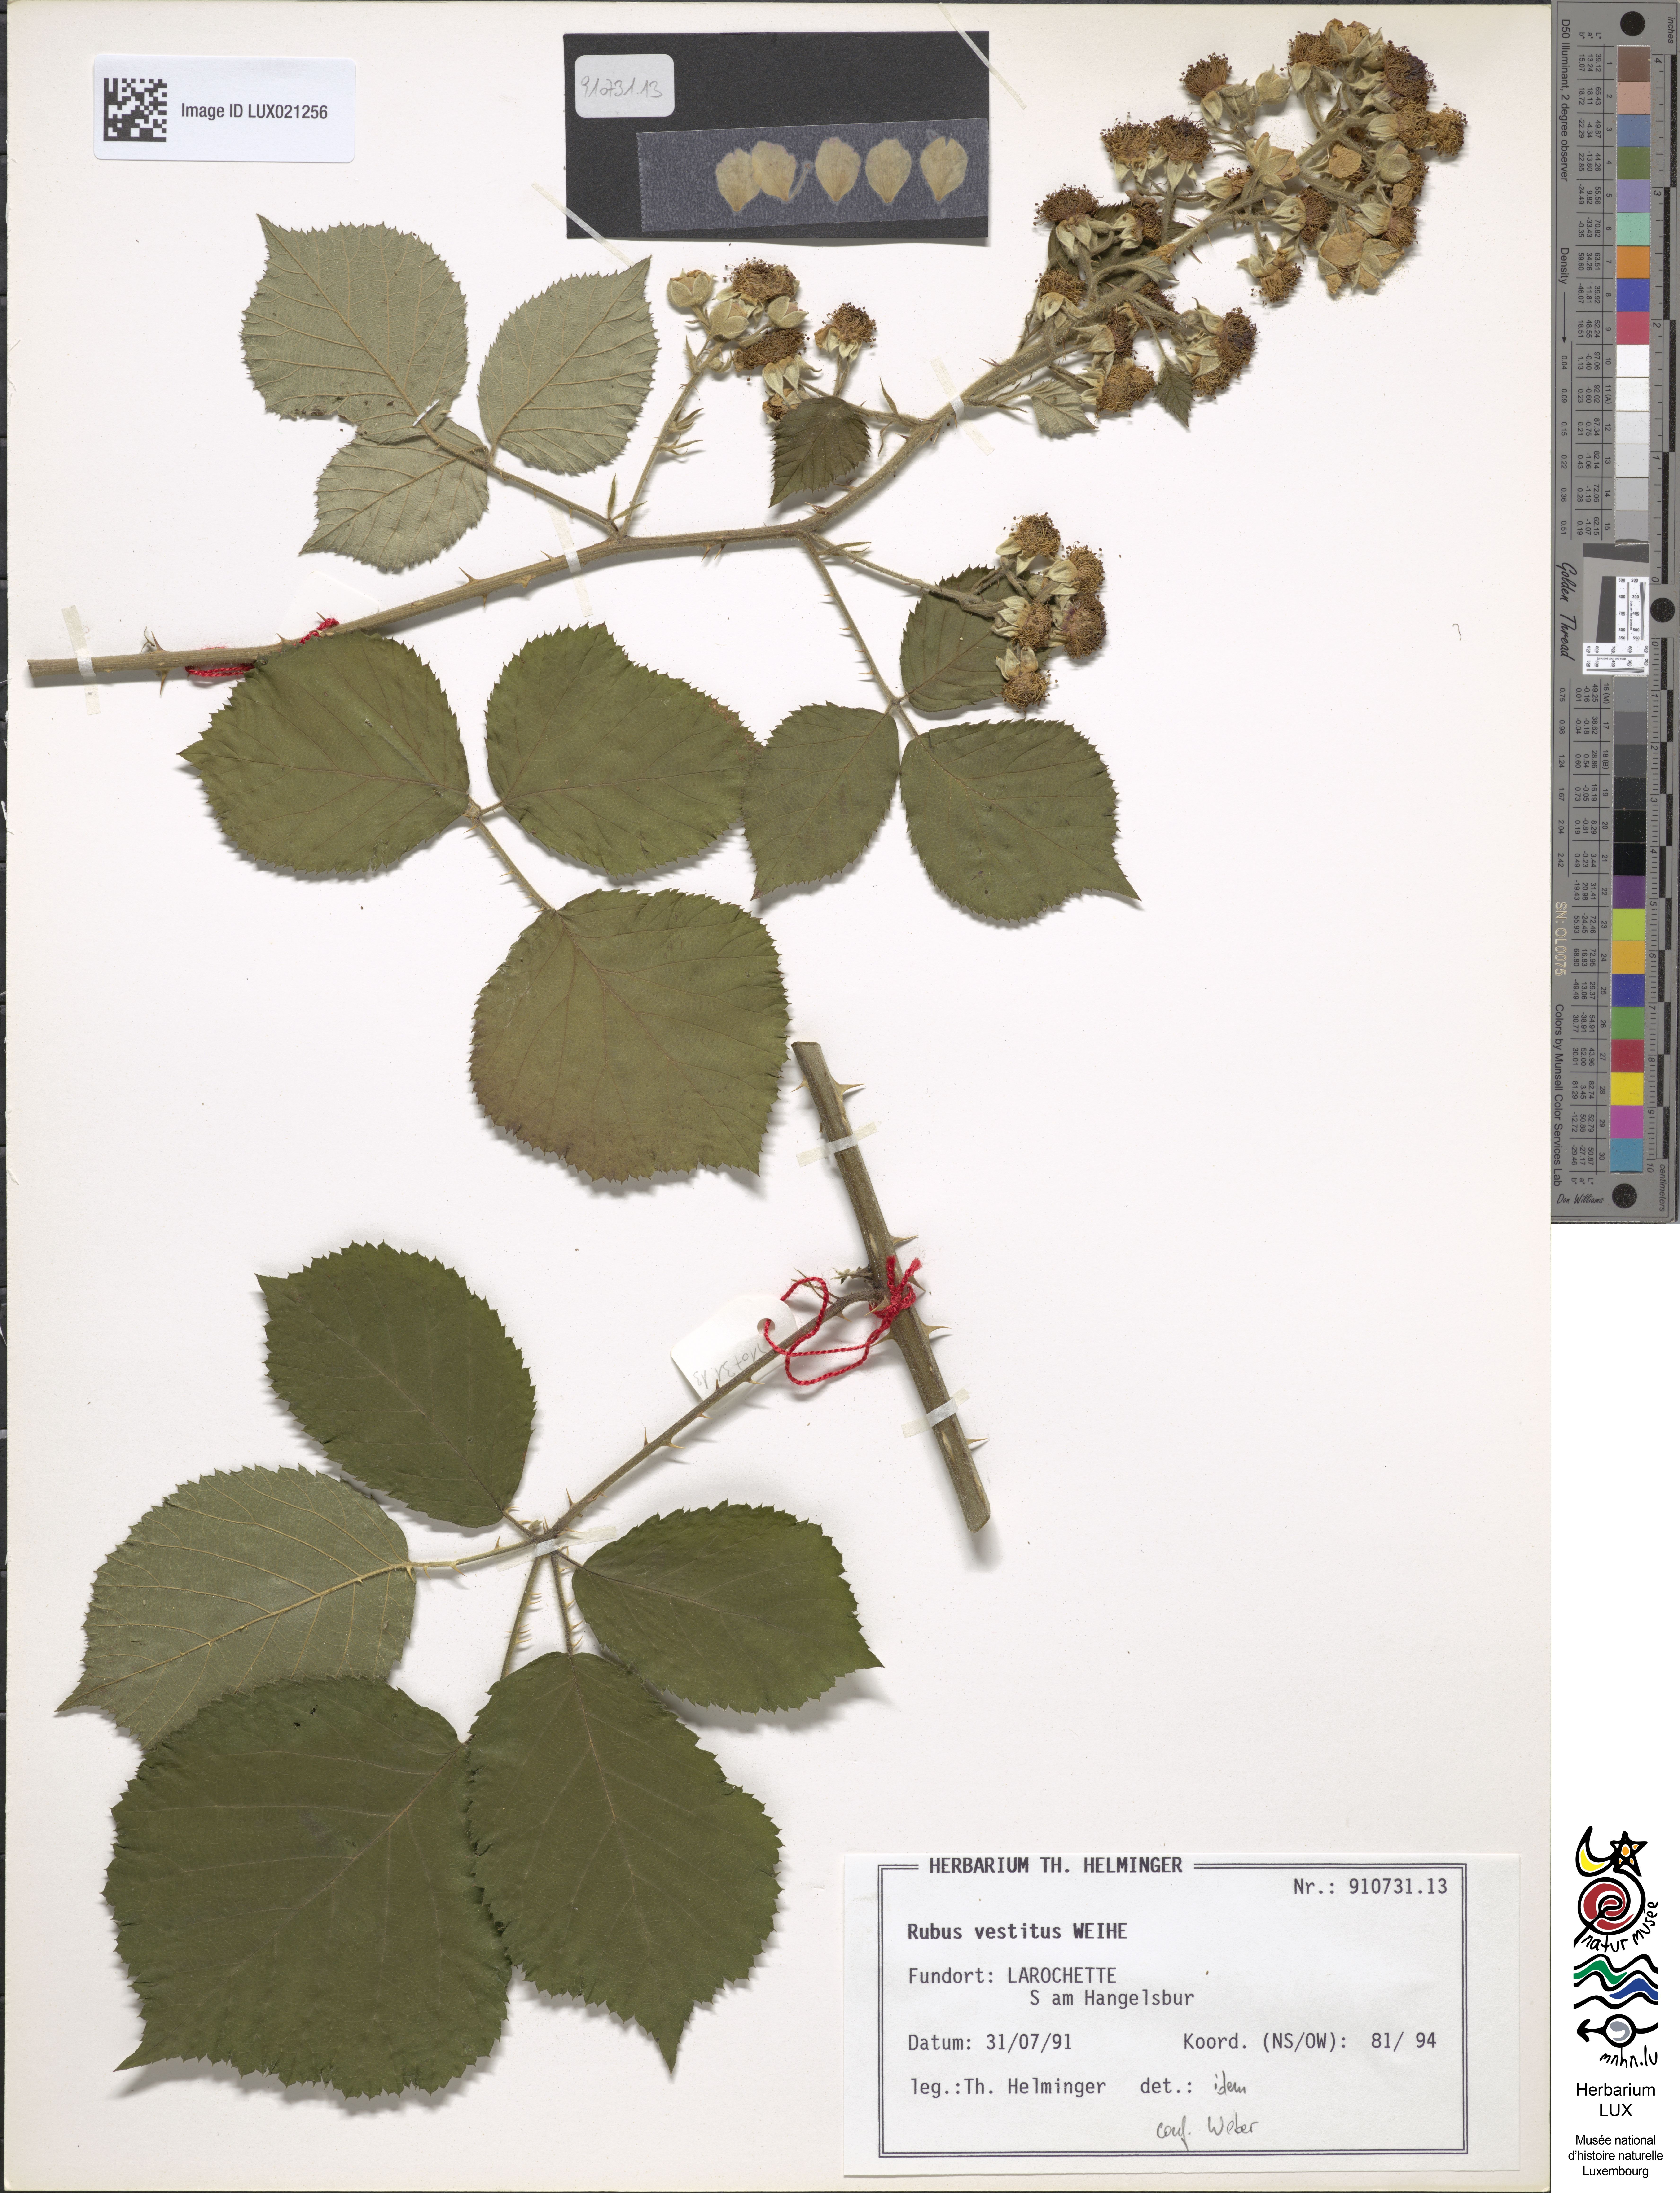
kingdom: Plantae
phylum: Tracheophyta
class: Magnoliopsida
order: Rosales
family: Rosaceae
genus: Rubus
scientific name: Rubus vestitus
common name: European blackberry
